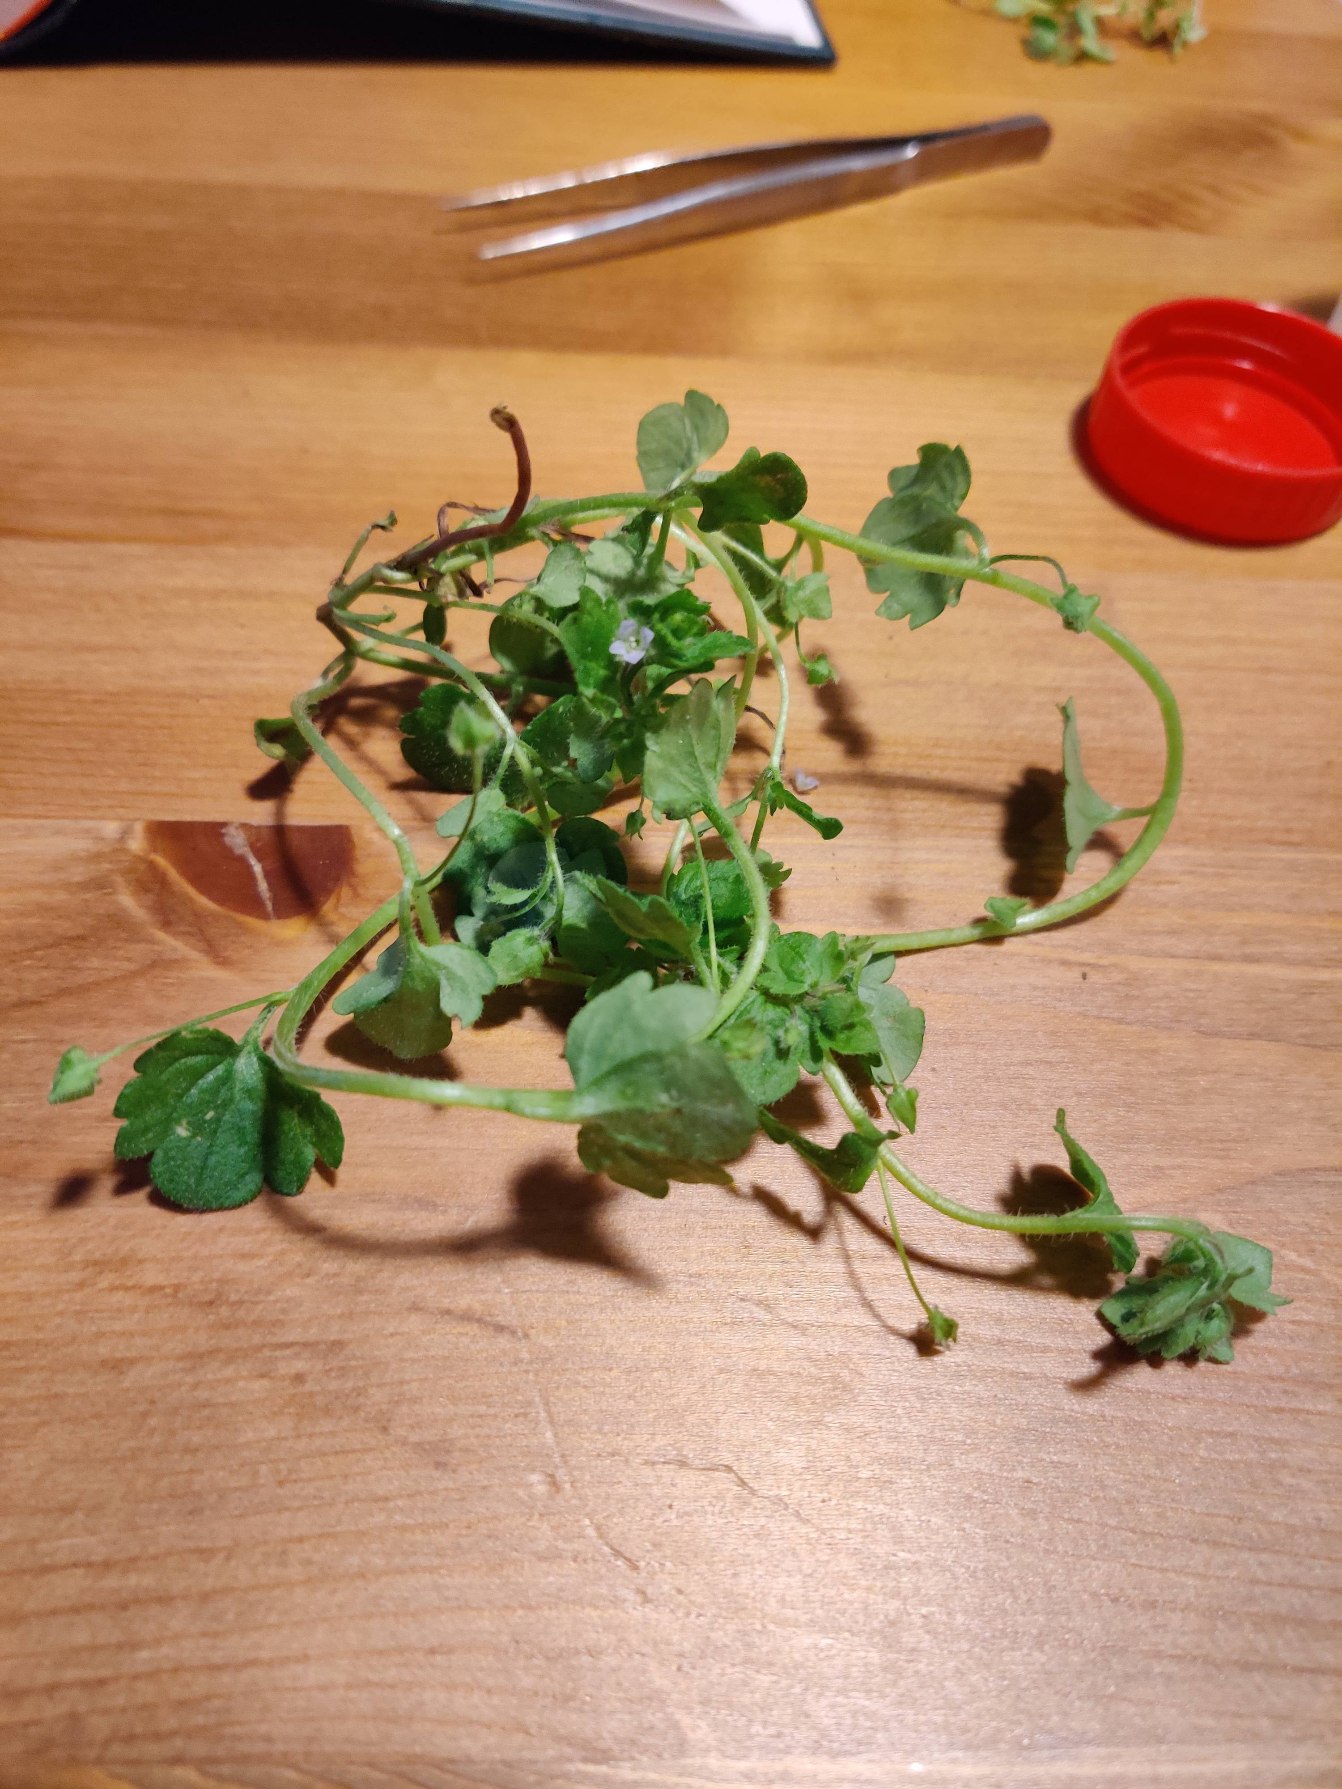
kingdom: Plantae
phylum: Tracheophyta
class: Magnoliopsida
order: Lamiales
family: Plantaginaceae
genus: Veronica
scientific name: Veronica sublobata
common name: Krat-ærenpris
